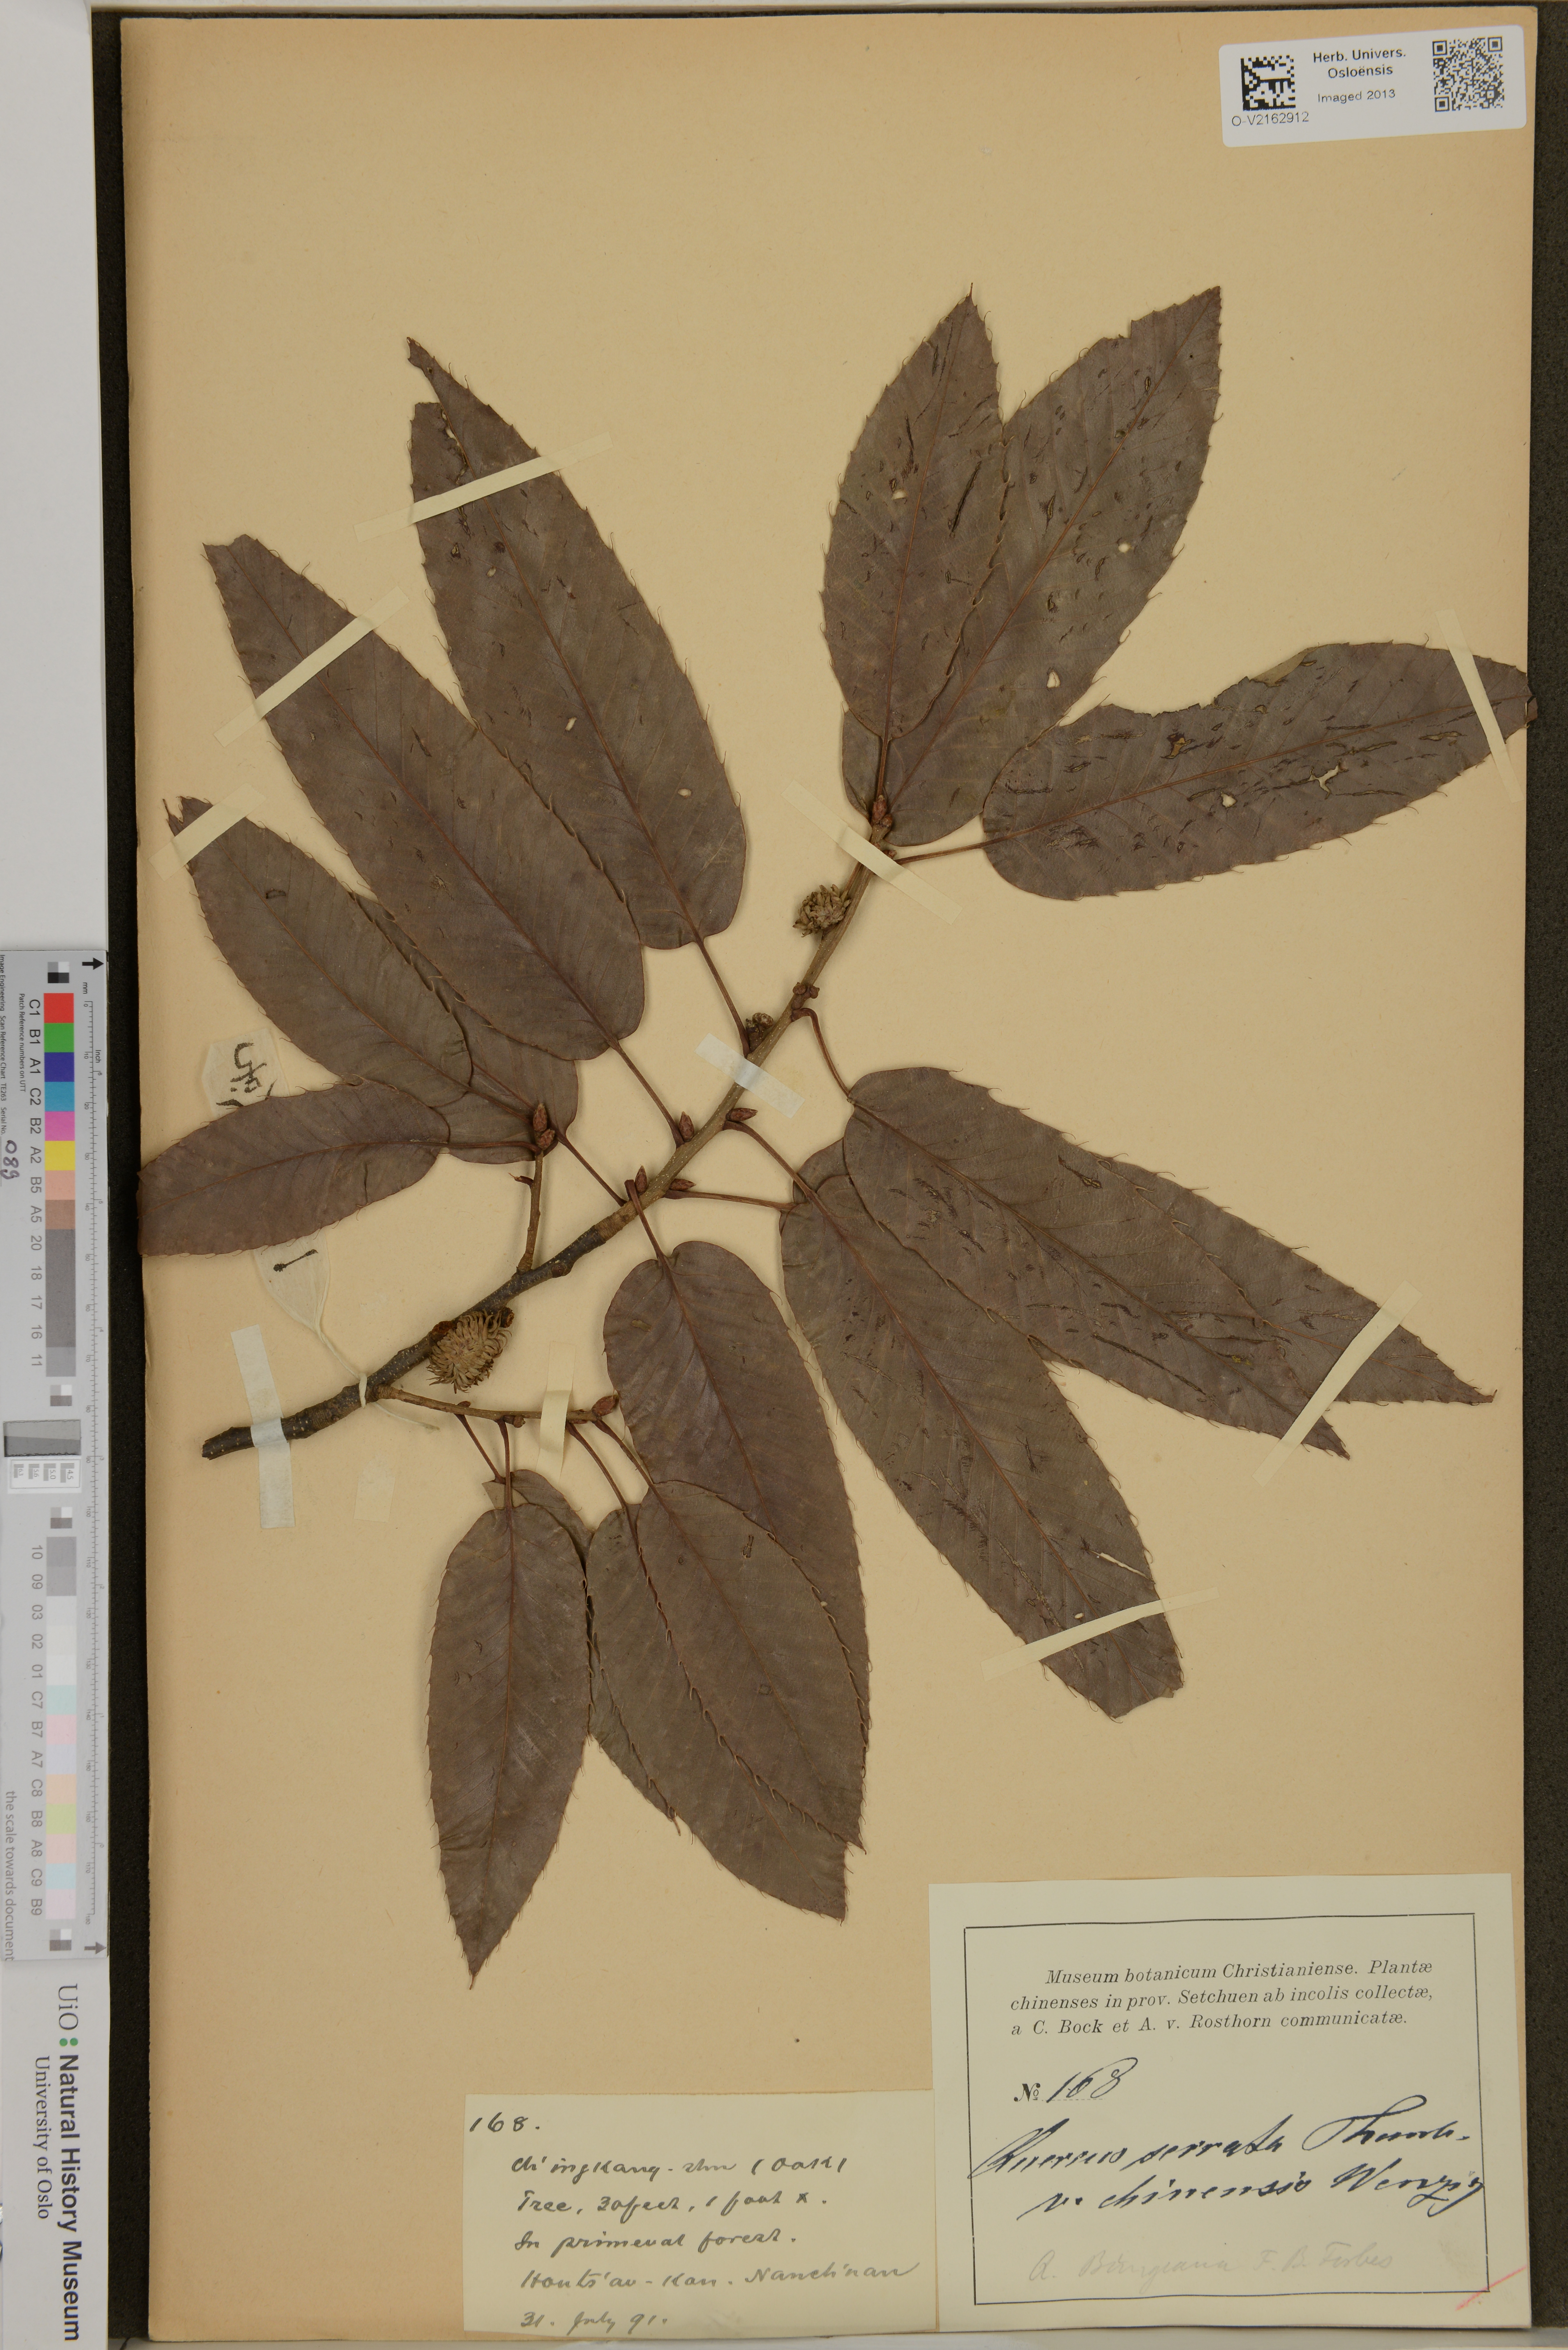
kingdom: Plantae
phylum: Tracheophyta
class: Magnoliopsida
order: Fagales
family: Fagaceae
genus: Quercus
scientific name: Quercus variabilis
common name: Chinese cork oak
